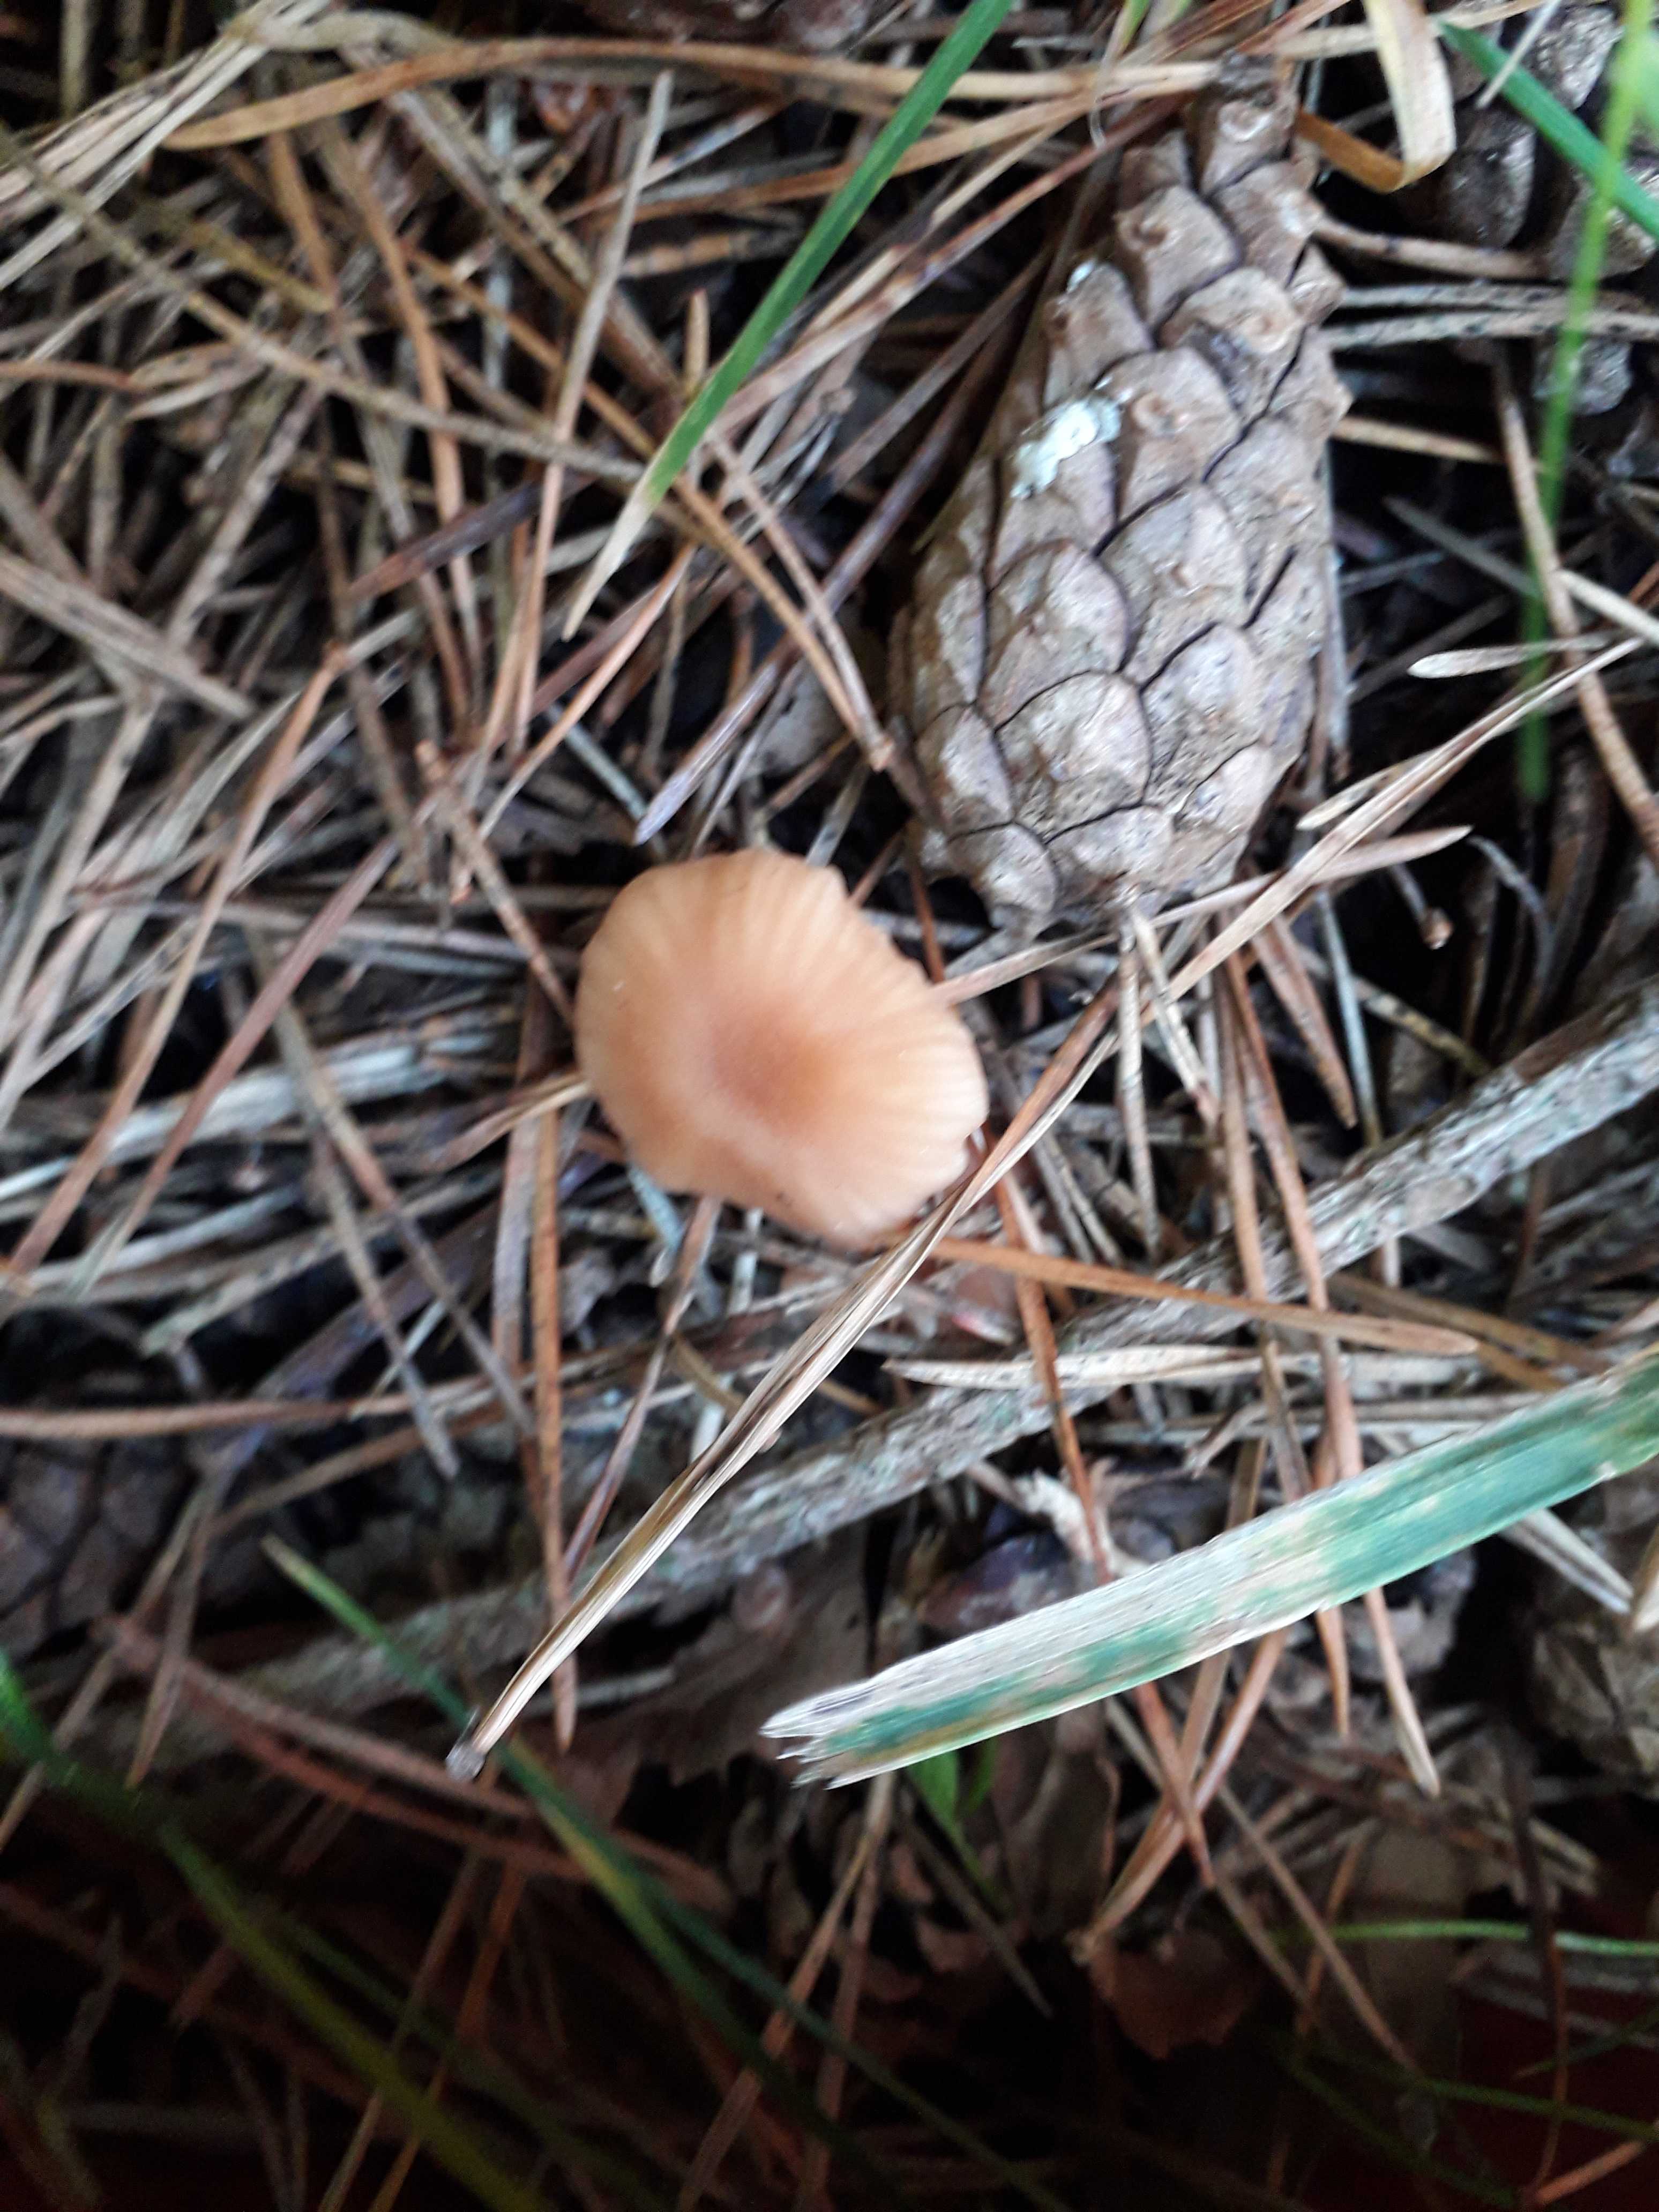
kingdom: Fungi
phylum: Basidiomycota
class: Agaricomycetes
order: Agaricales
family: Hydnangiaceae
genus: Laccaria
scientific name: Laccaria laccata
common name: rød ametysthat
